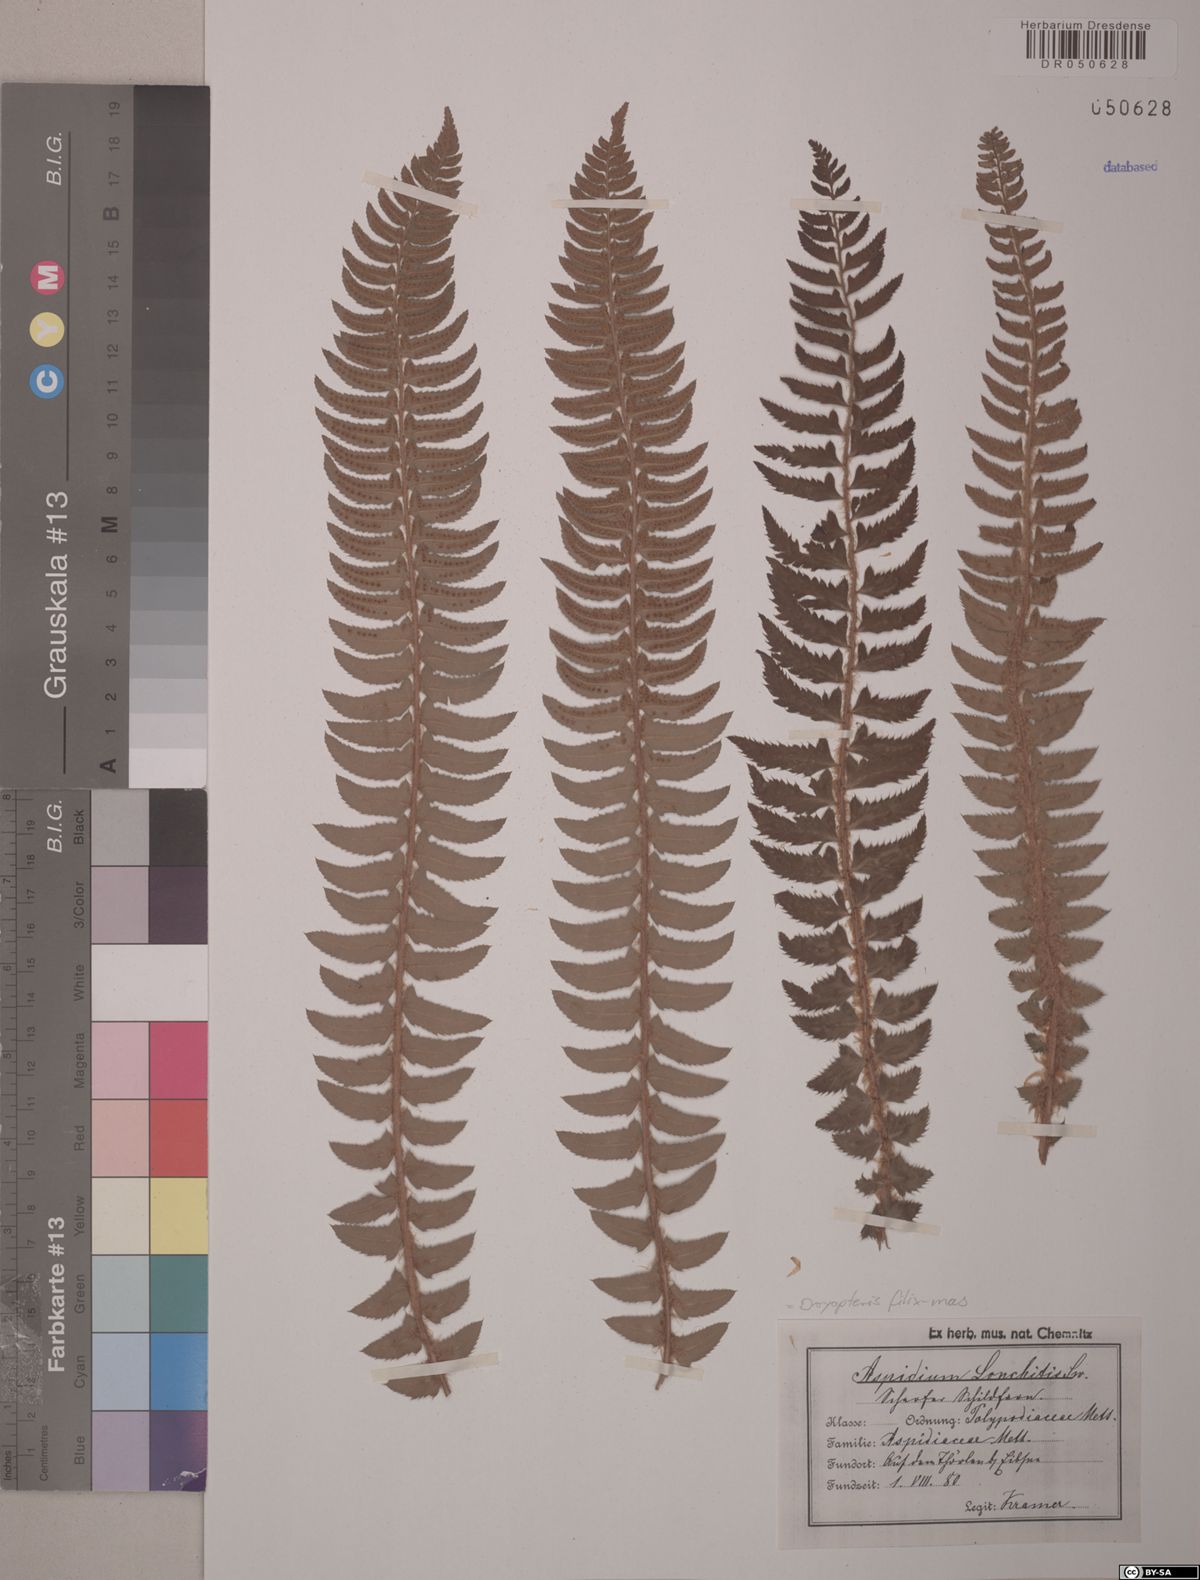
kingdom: Plantae
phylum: Tracheophyta
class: Polypodiopsida
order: Polypodiales
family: Dryopteridaceae
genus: Polystichum
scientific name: Polystichum lonchitis
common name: Holly fern
